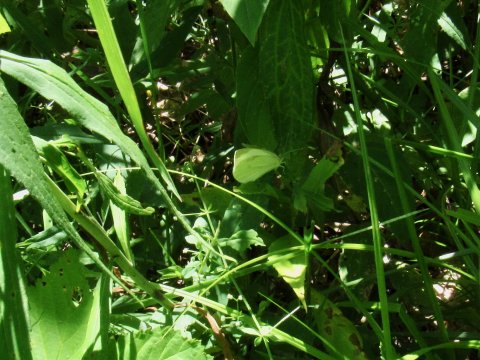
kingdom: Animalia
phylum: Arthropoda
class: Insecta
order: Lepidoptera
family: Pieridae
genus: Pieris
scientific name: Pieris rapae
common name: Cabbage White
